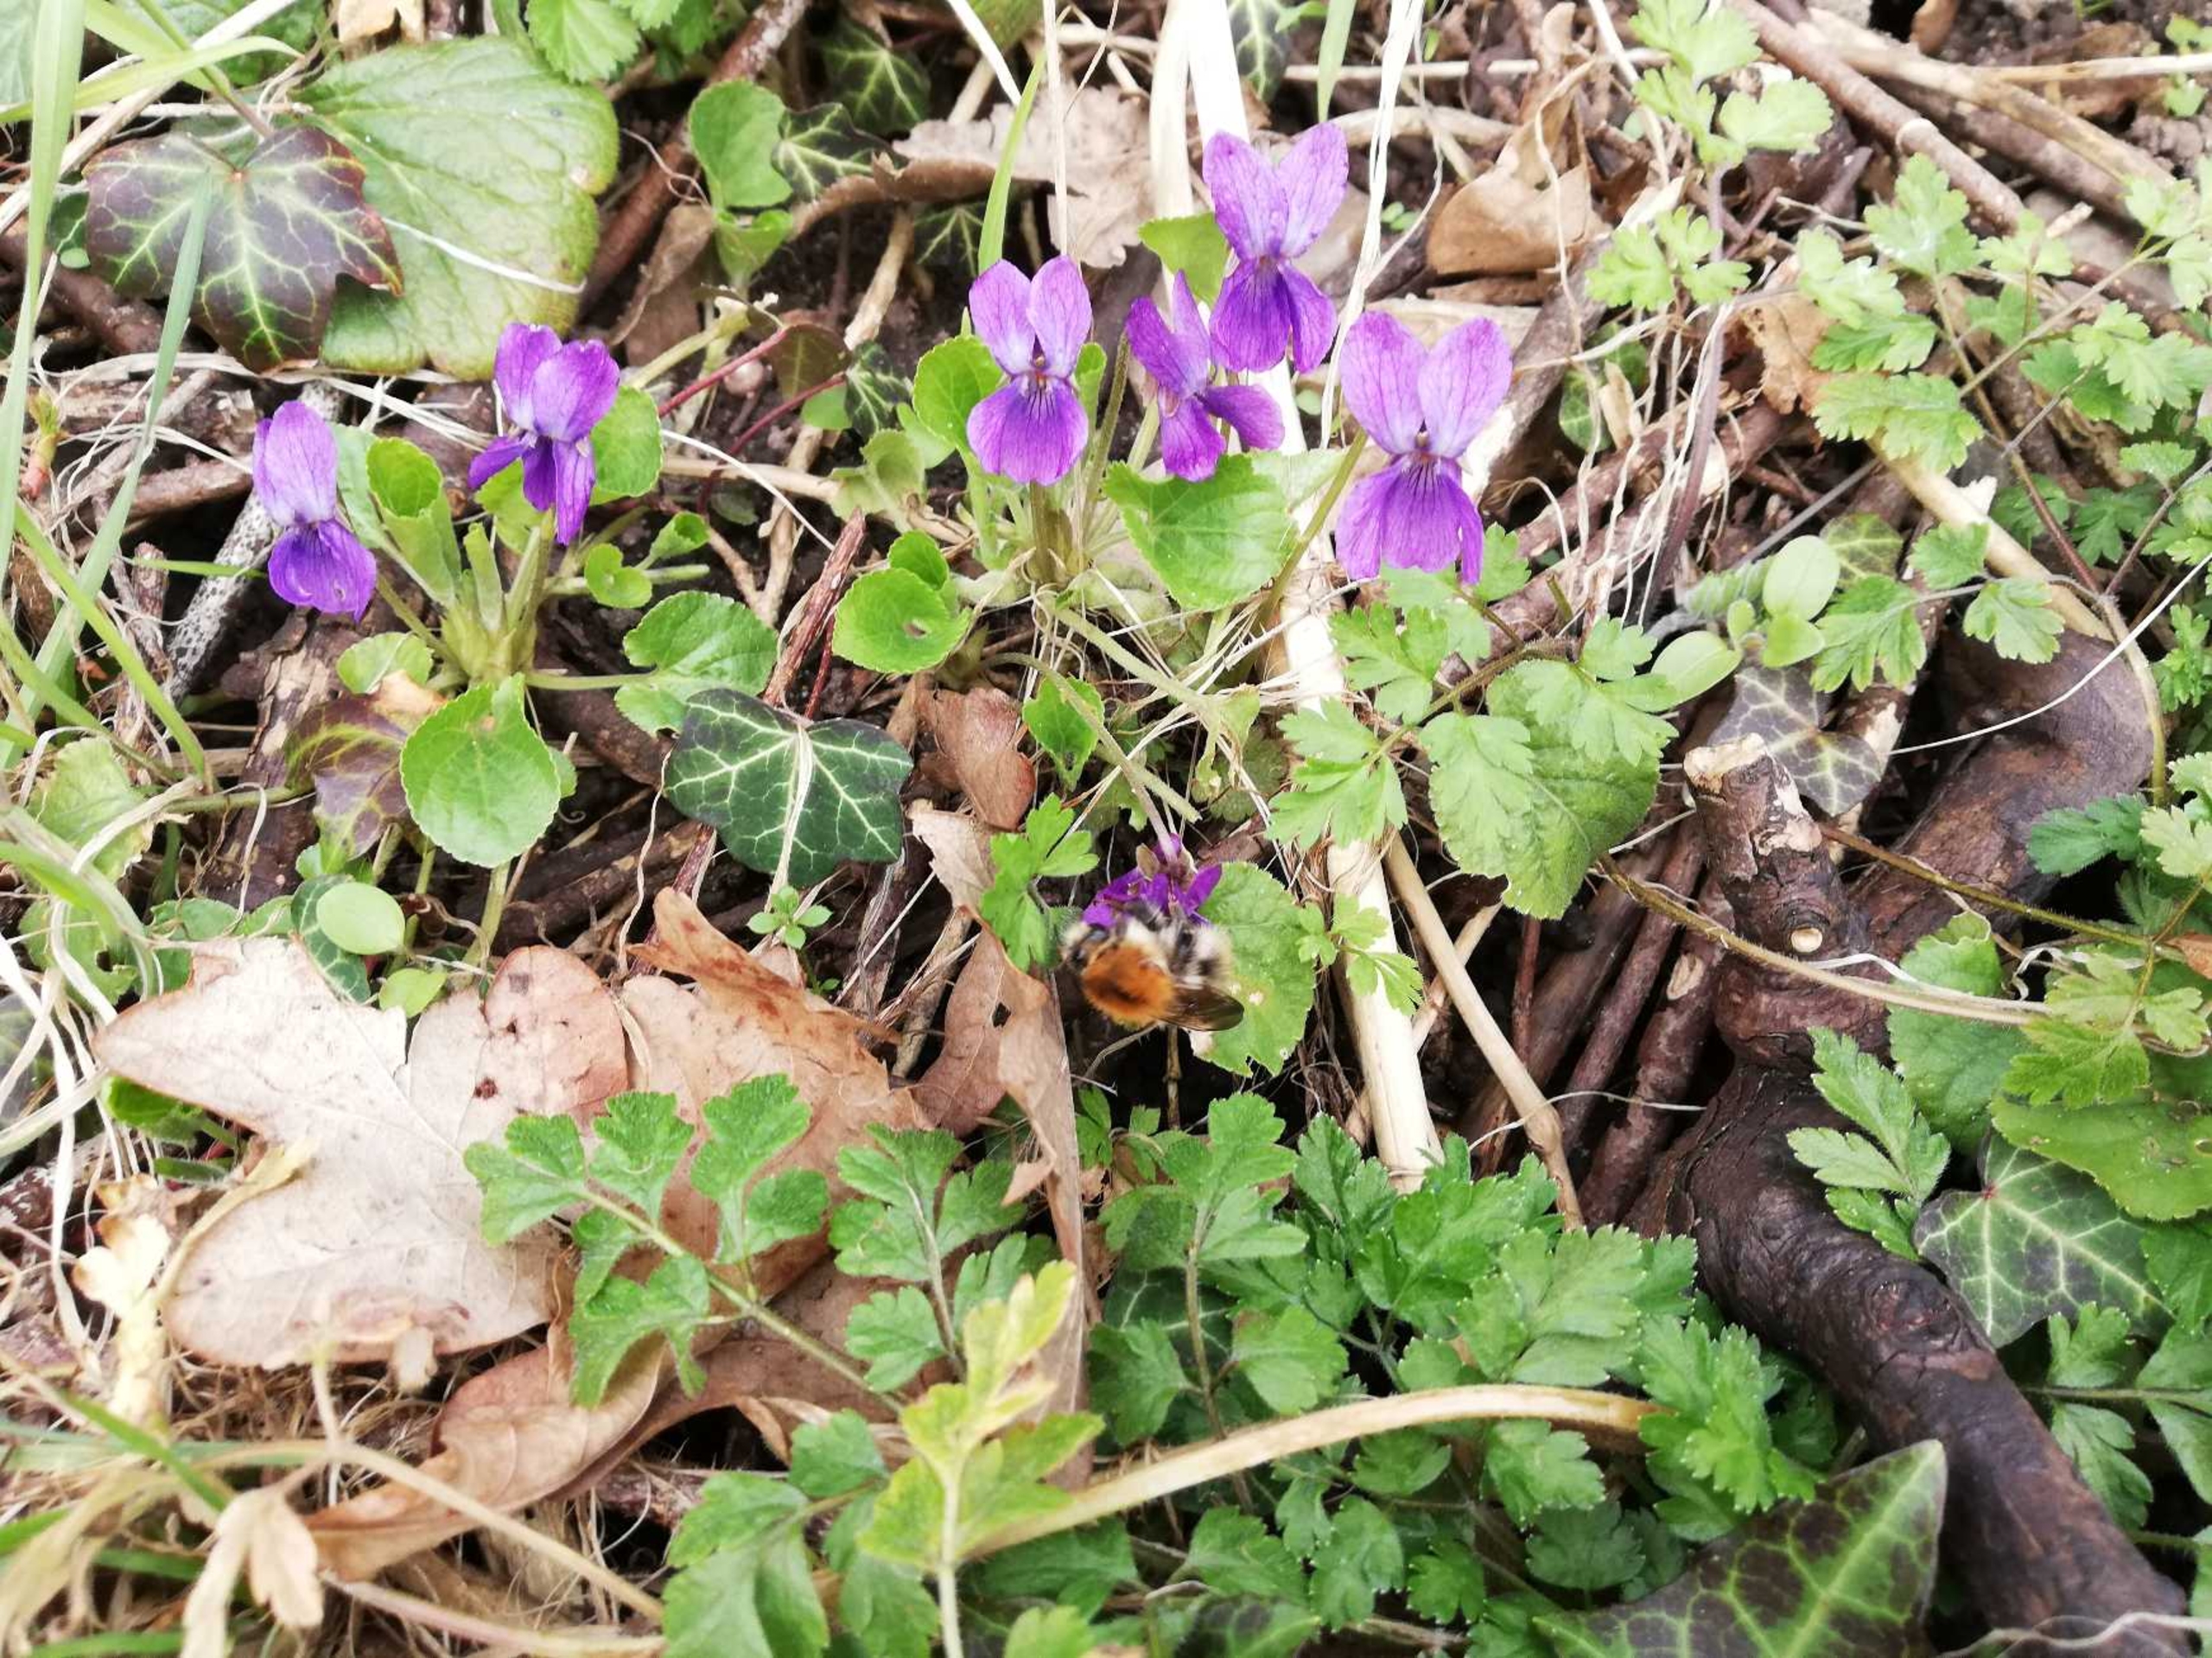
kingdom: Animalia
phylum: Arthropoda
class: Insecta
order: Hymenoptera
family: Apidae
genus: Bombus
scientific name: Bombus pascuorum
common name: Agerhumle
